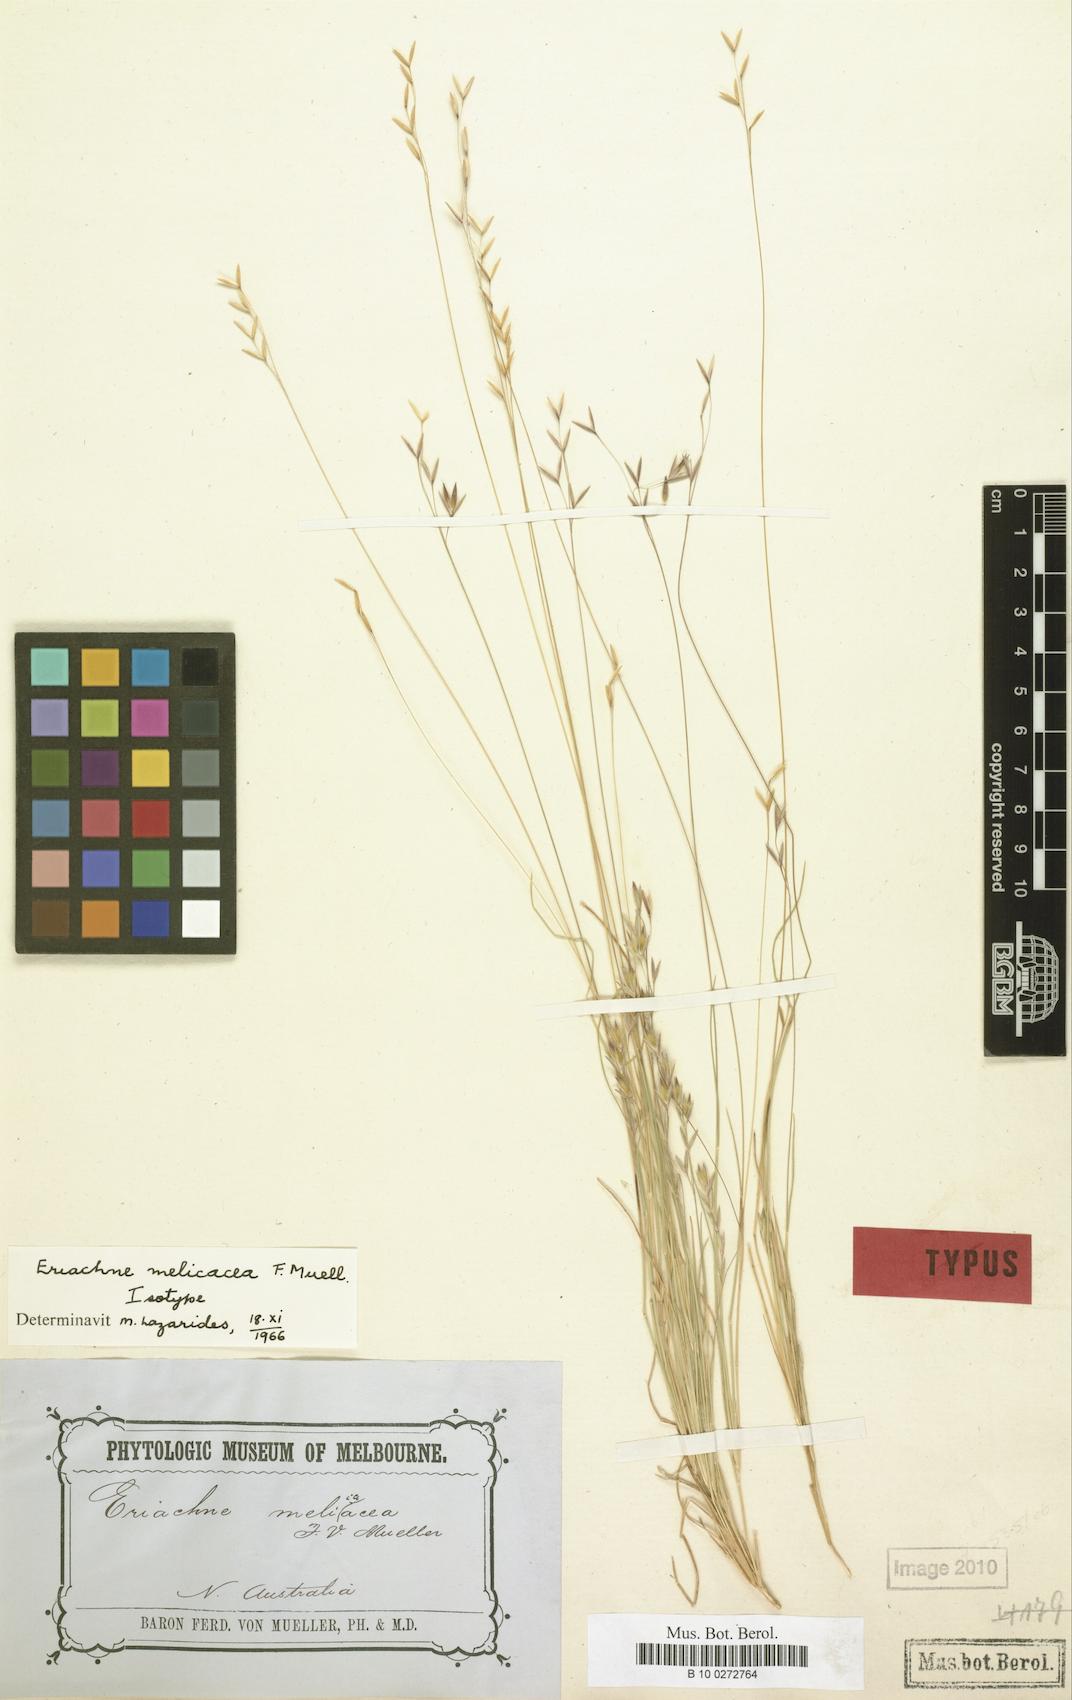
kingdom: Plantae
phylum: Tracheophyta
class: Liliopsida
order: Poales
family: Poaceae
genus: Eriachne
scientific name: Eriachne melicacea
